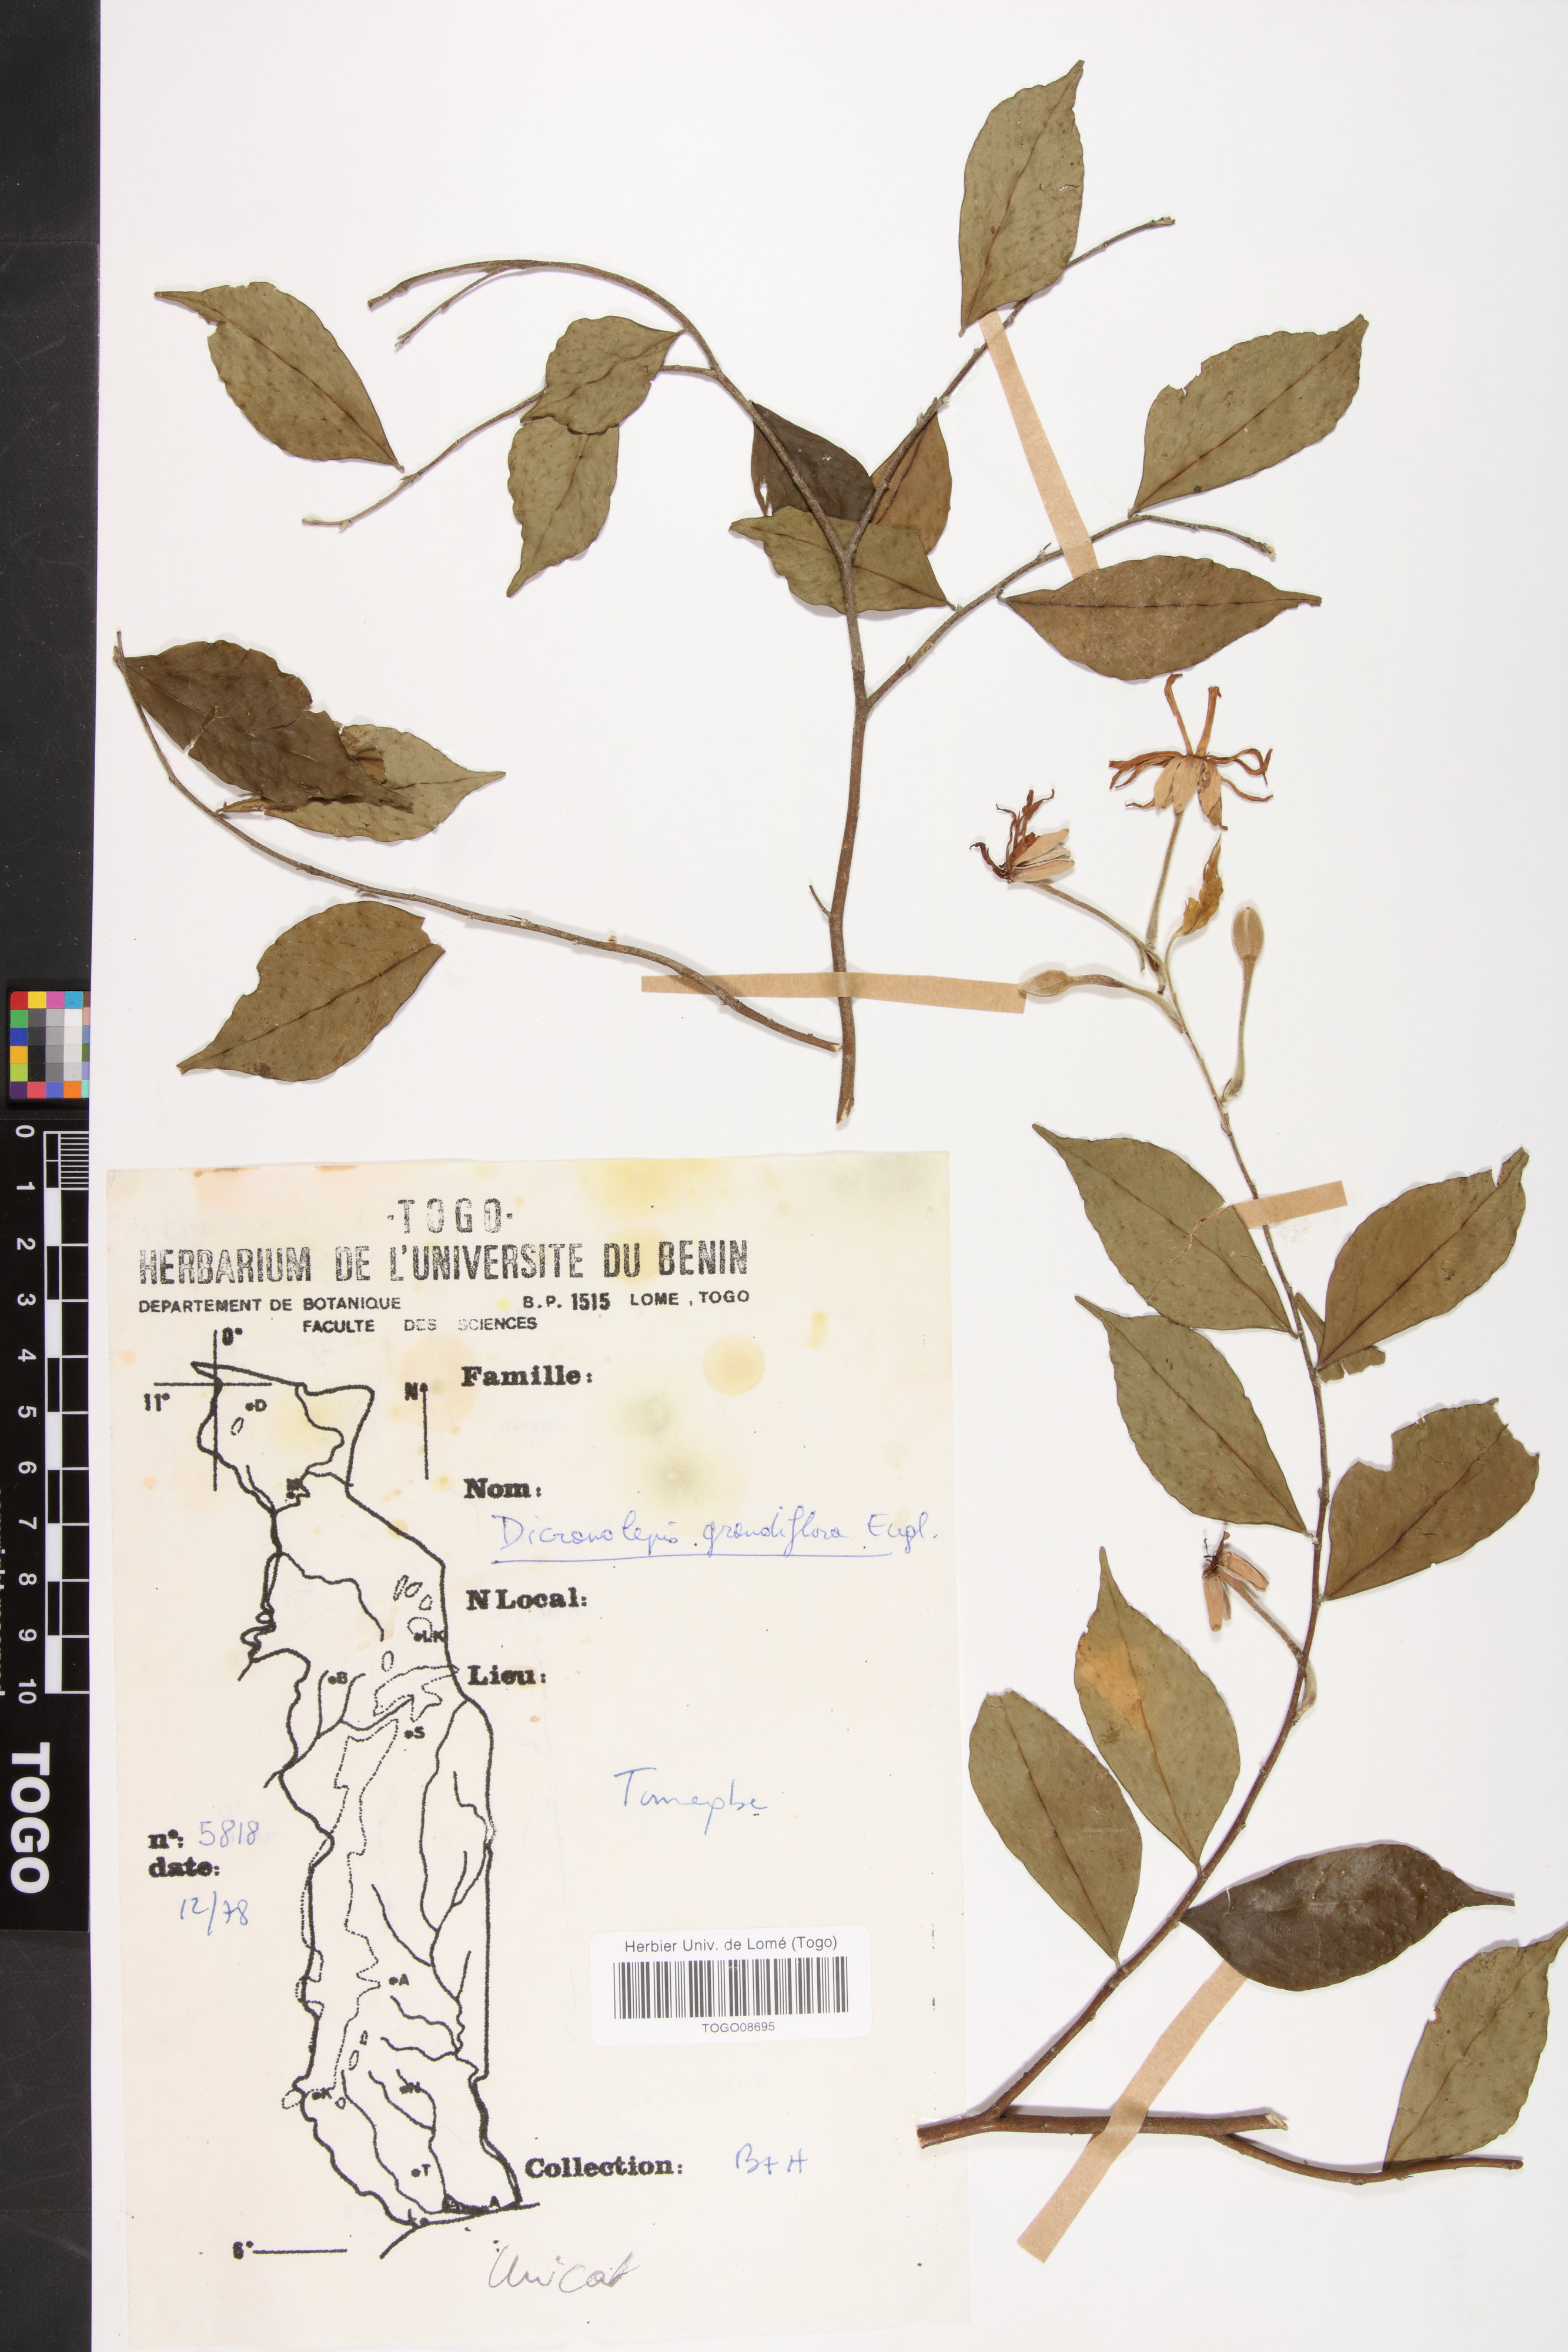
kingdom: Plantae
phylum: Tracheophyta
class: Magnoliopsida
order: Malvales
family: Thymelaeaceae
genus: Dicranolepis
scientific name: Dicranolepis grandiflora
